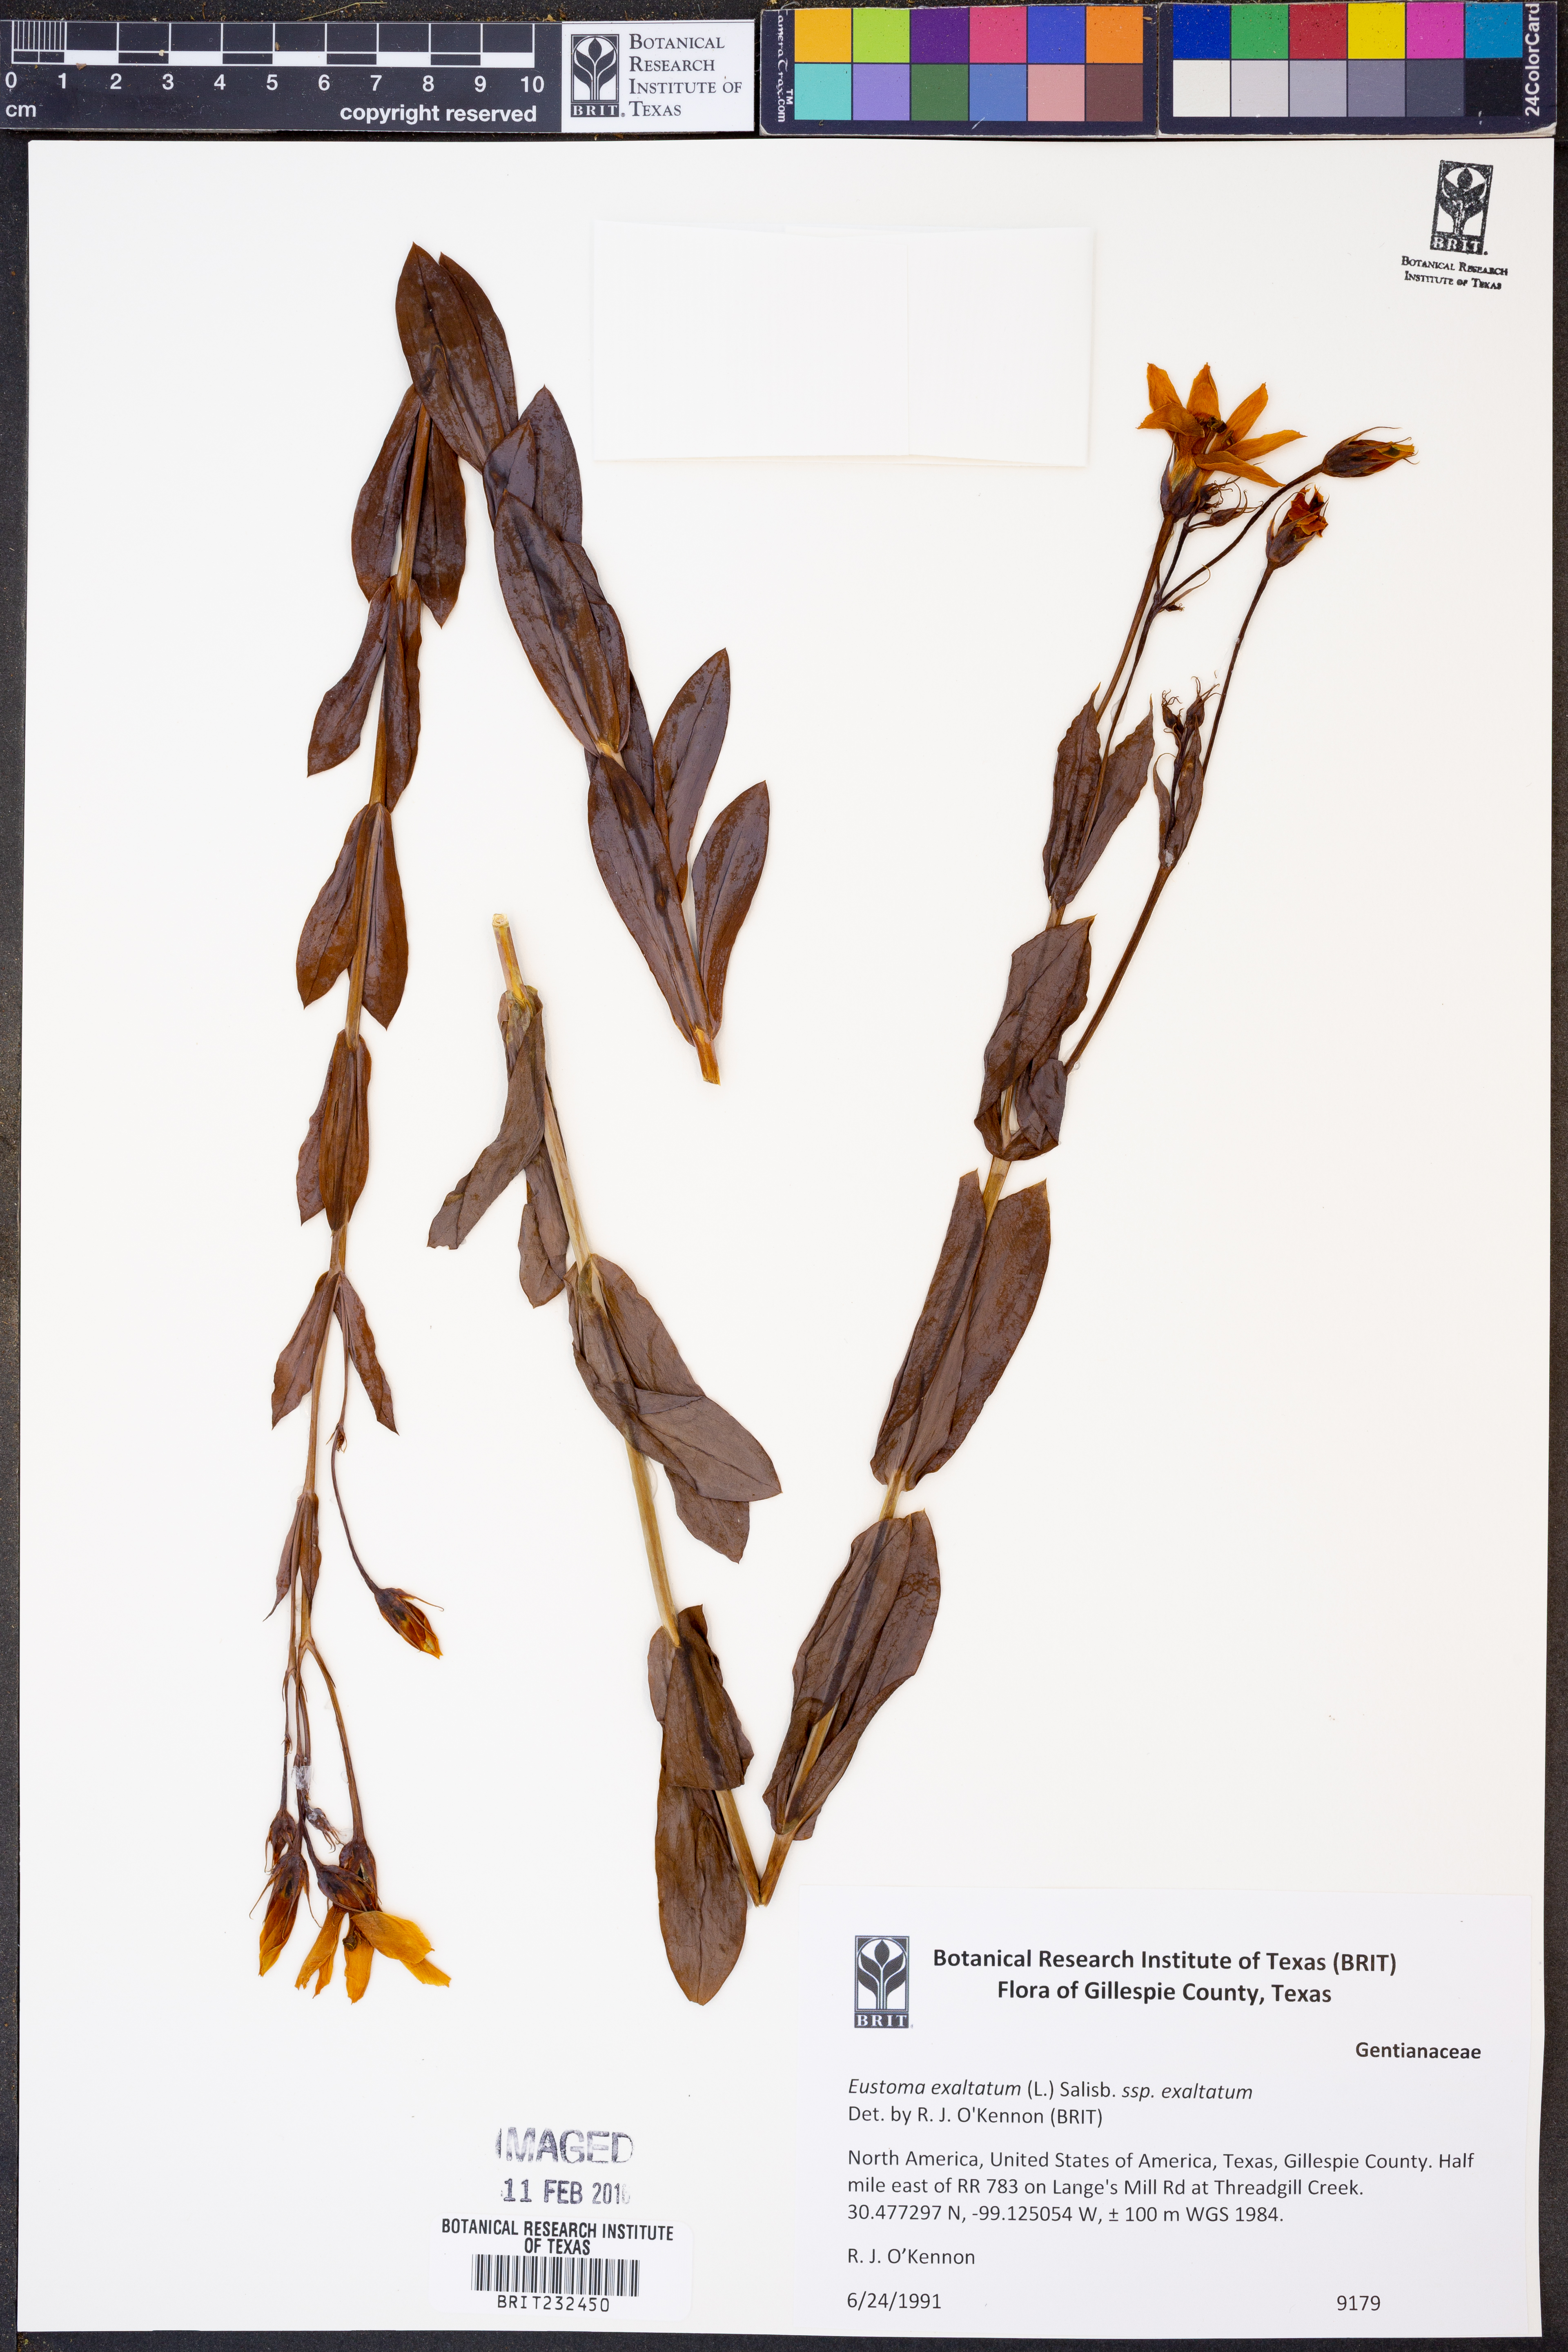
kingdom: Plantae
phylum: Tracheophyta
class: Magnoliopsida
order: Gentianales
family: Gentianaceae
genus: Eustoma
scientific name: Eustoma exaltatum
